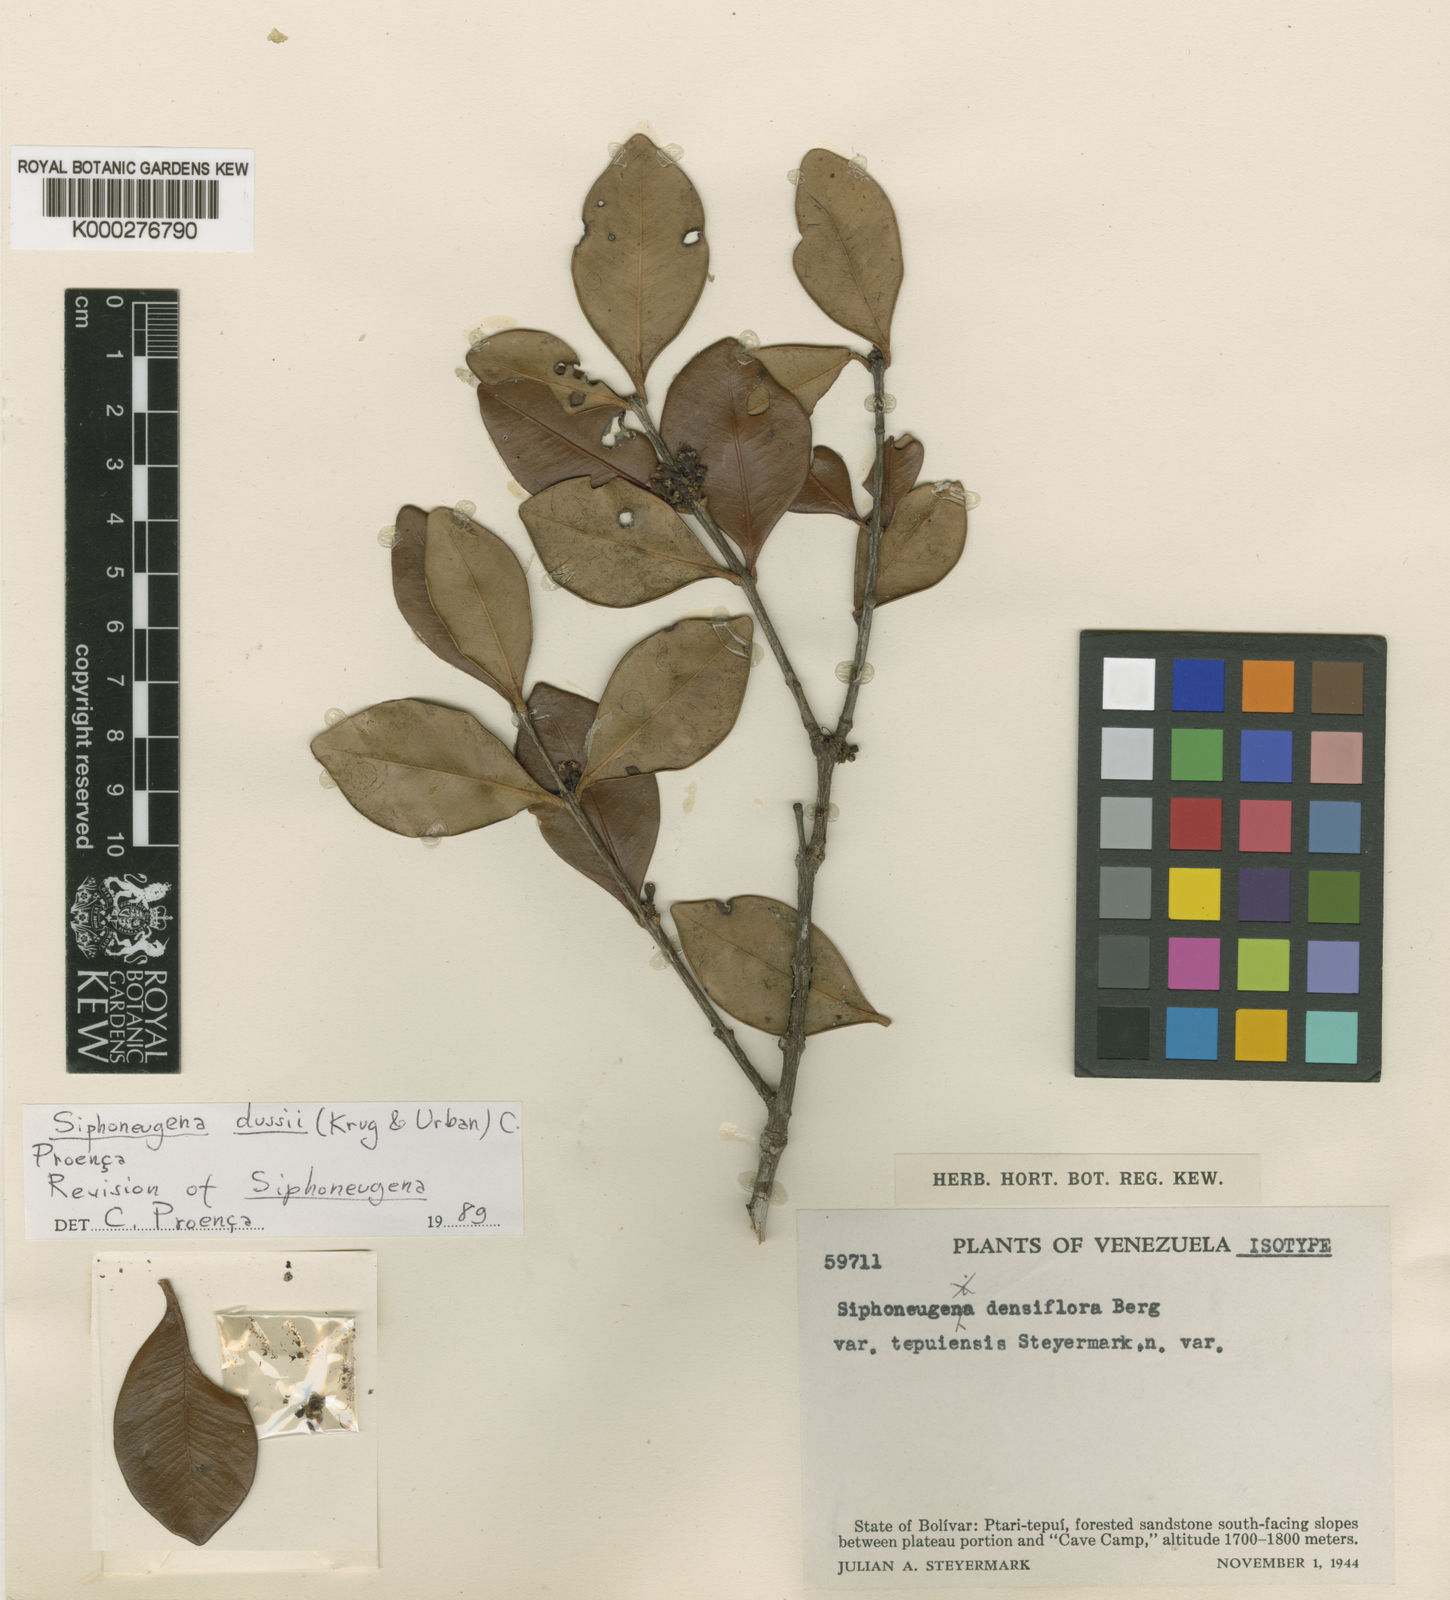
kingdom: Plantae
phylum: Tracheophyta
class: Magnoliopsida
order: Myrtales
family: Myrtaceae
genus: Siphoneugena
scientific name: Siphoneugena
